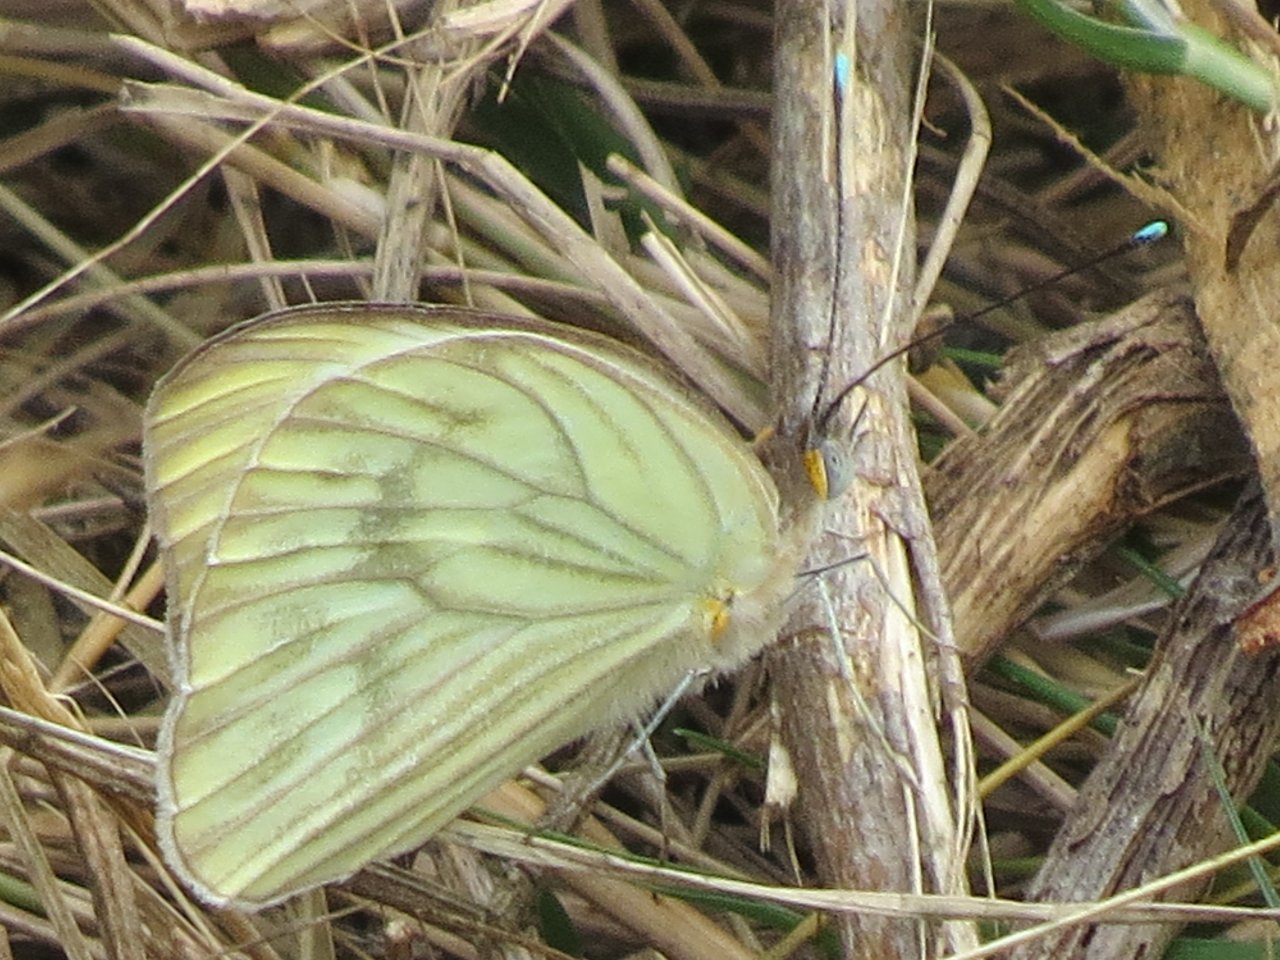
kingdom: Animalia
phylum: Arthropoda
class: Insecta
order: Lepidoptera
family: Pieridae
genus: Ascia
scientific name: Ascia monuste
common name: Great Southern White
